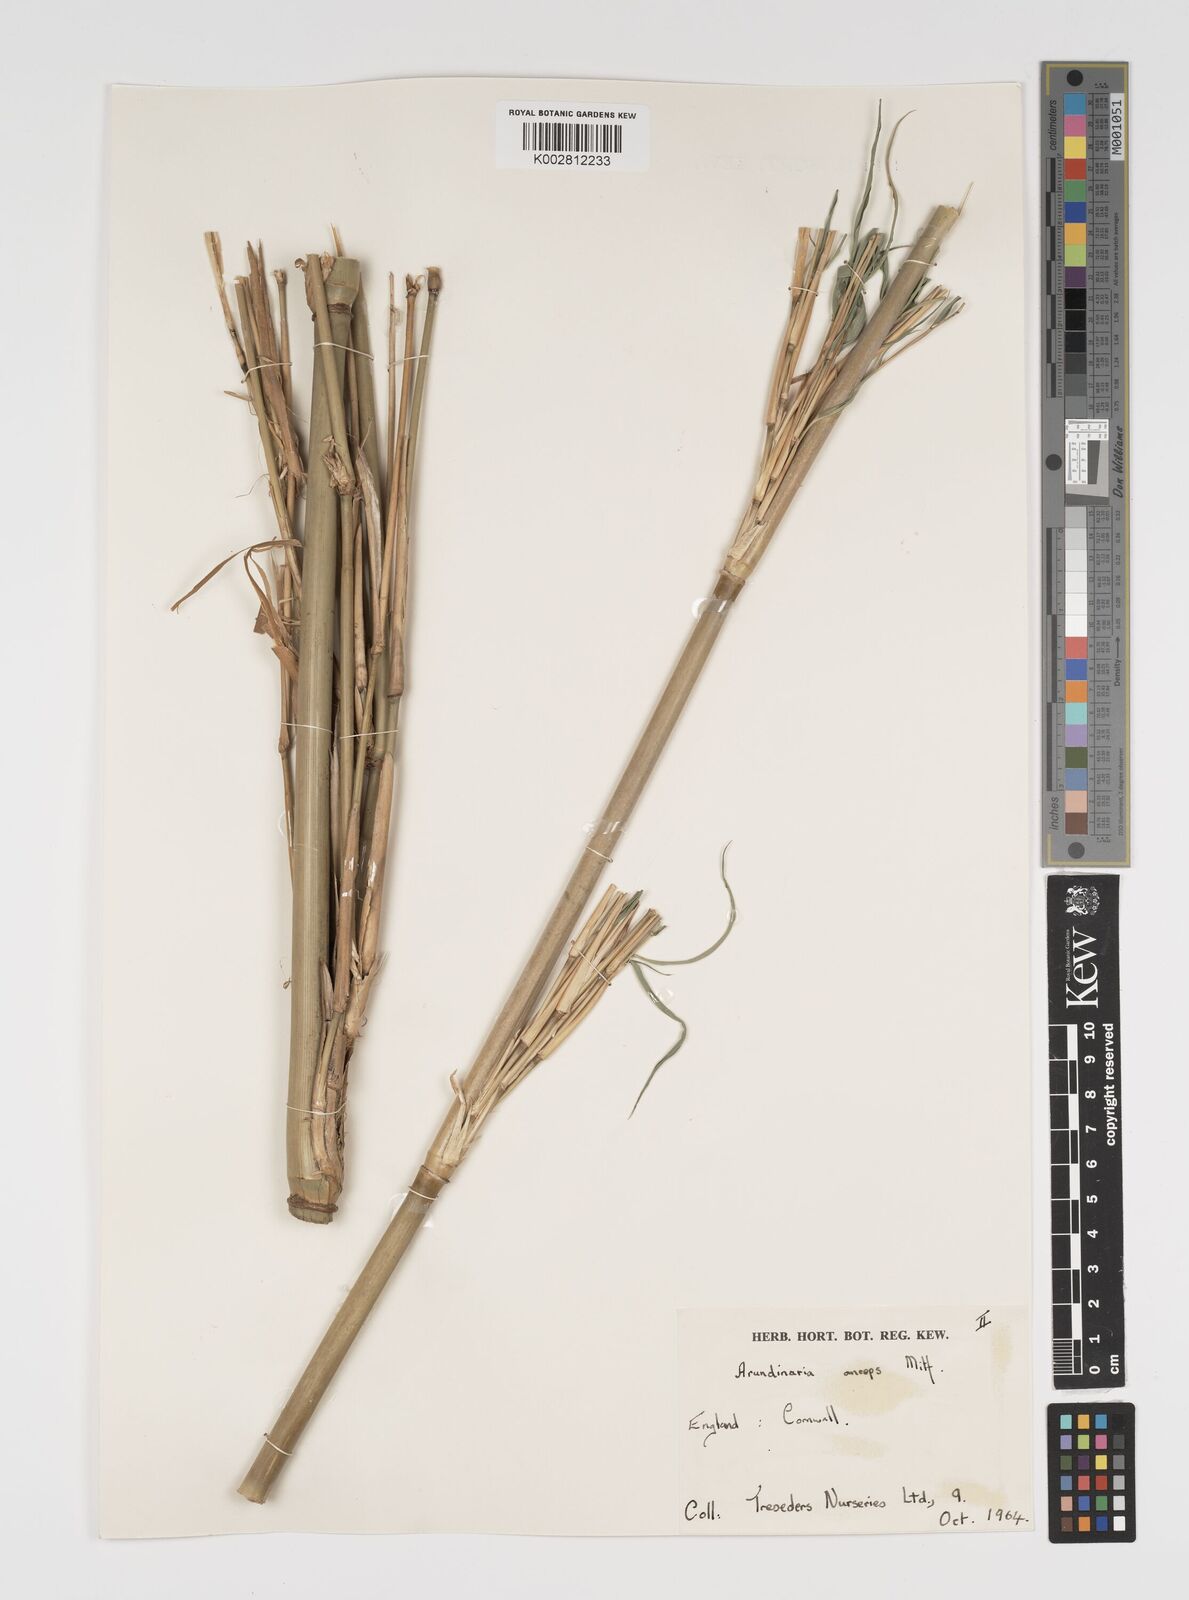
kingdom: Plantae
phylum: Tracheophyta
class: Liliopsida
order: Poales
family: Poaceae
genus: Yushania
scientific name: Yushania anceps
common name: Indian fountain-bamboo
